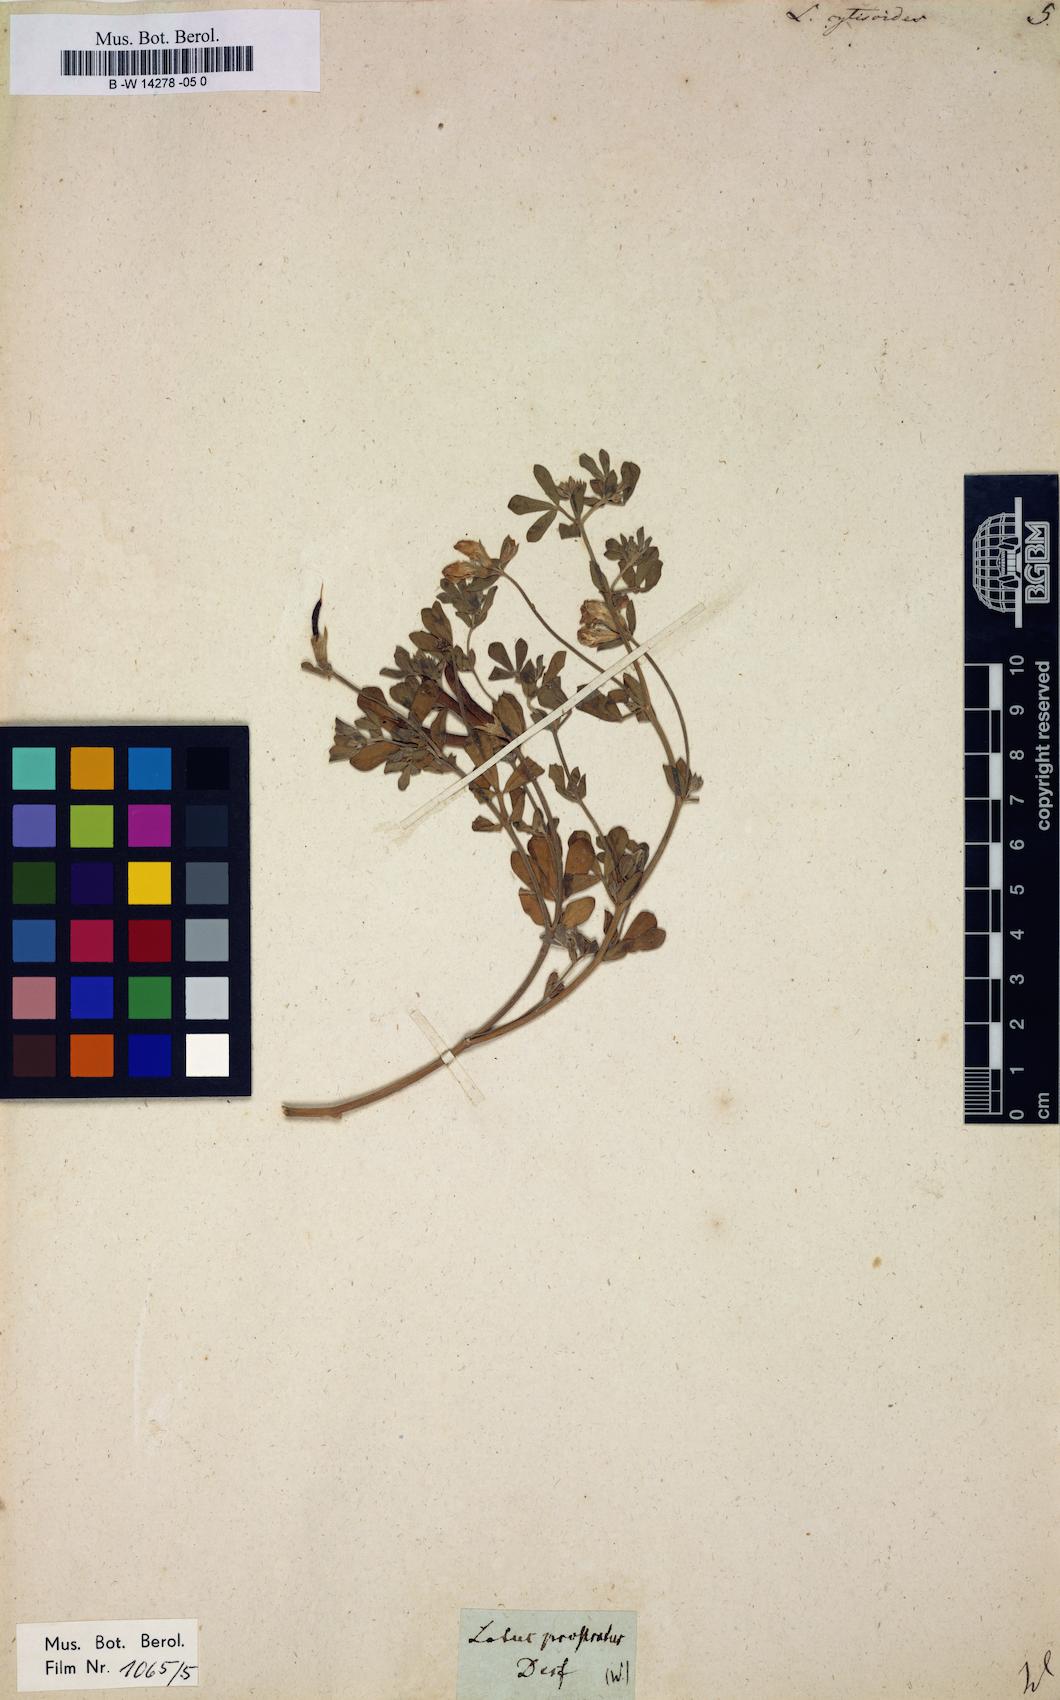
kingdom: Plantae
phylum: Tracheophyta
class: Magnoliopsida
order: Fabales
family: Fabaceae
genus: Lotus
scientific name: Lotus cytisoides
